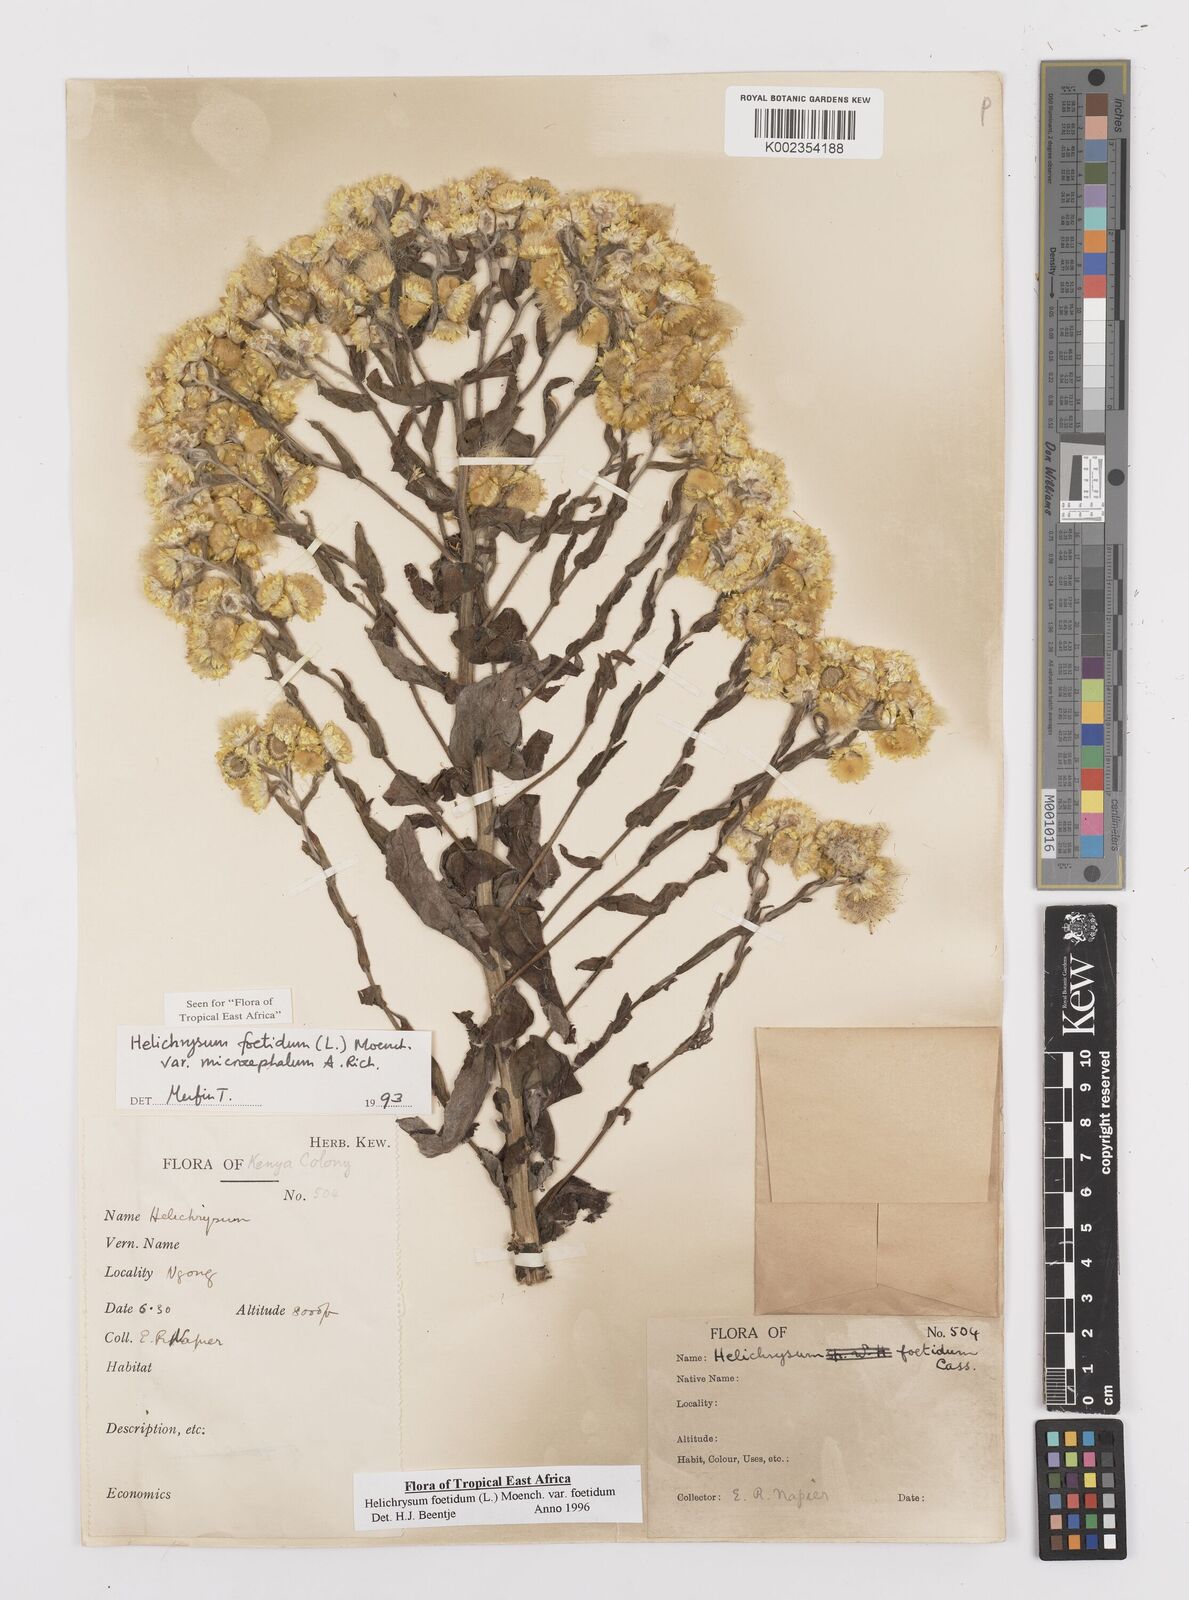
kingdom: Plantae
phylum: Tracheophyta
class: Magnoliopsida
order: Asterales
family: Asteraceae
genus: Helichrysum
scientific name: Helichrysum foetidum
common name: Stinking everlasting
